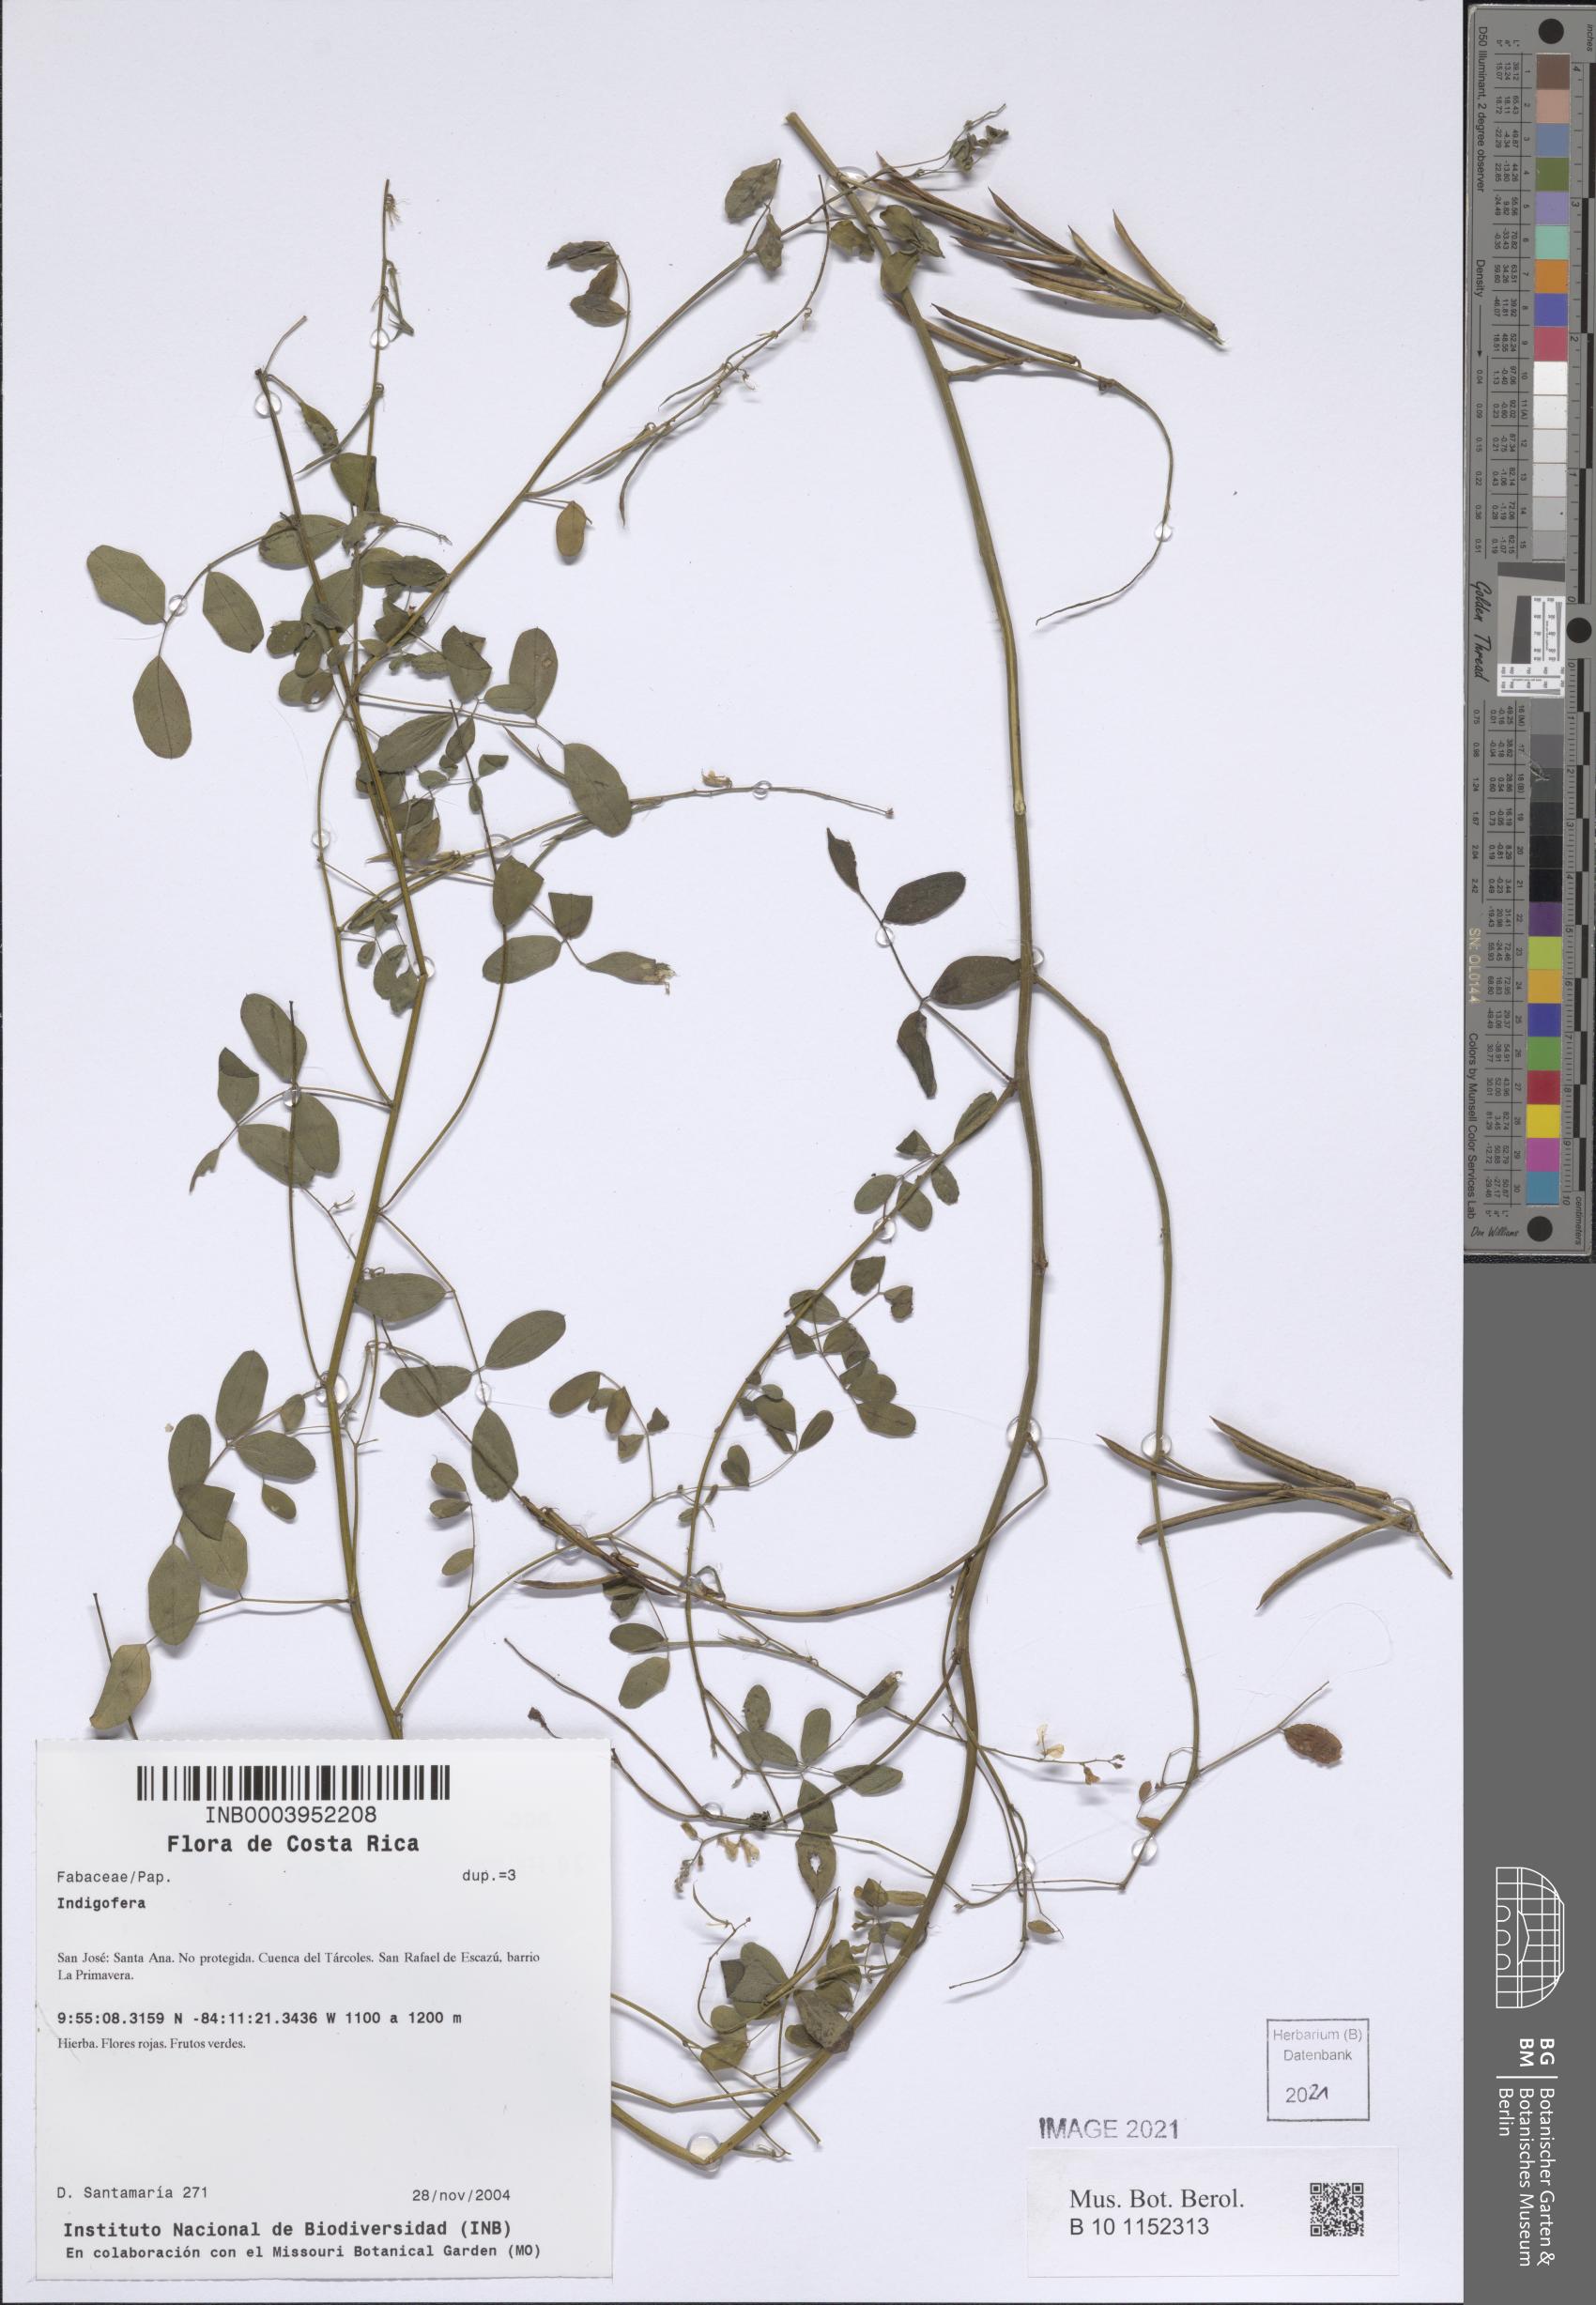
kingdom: Plantae
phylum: Tracheophyta
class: Magnoliopsida
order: Fabales
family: Fabaceae
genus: Indigofera
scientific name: Indigofera
